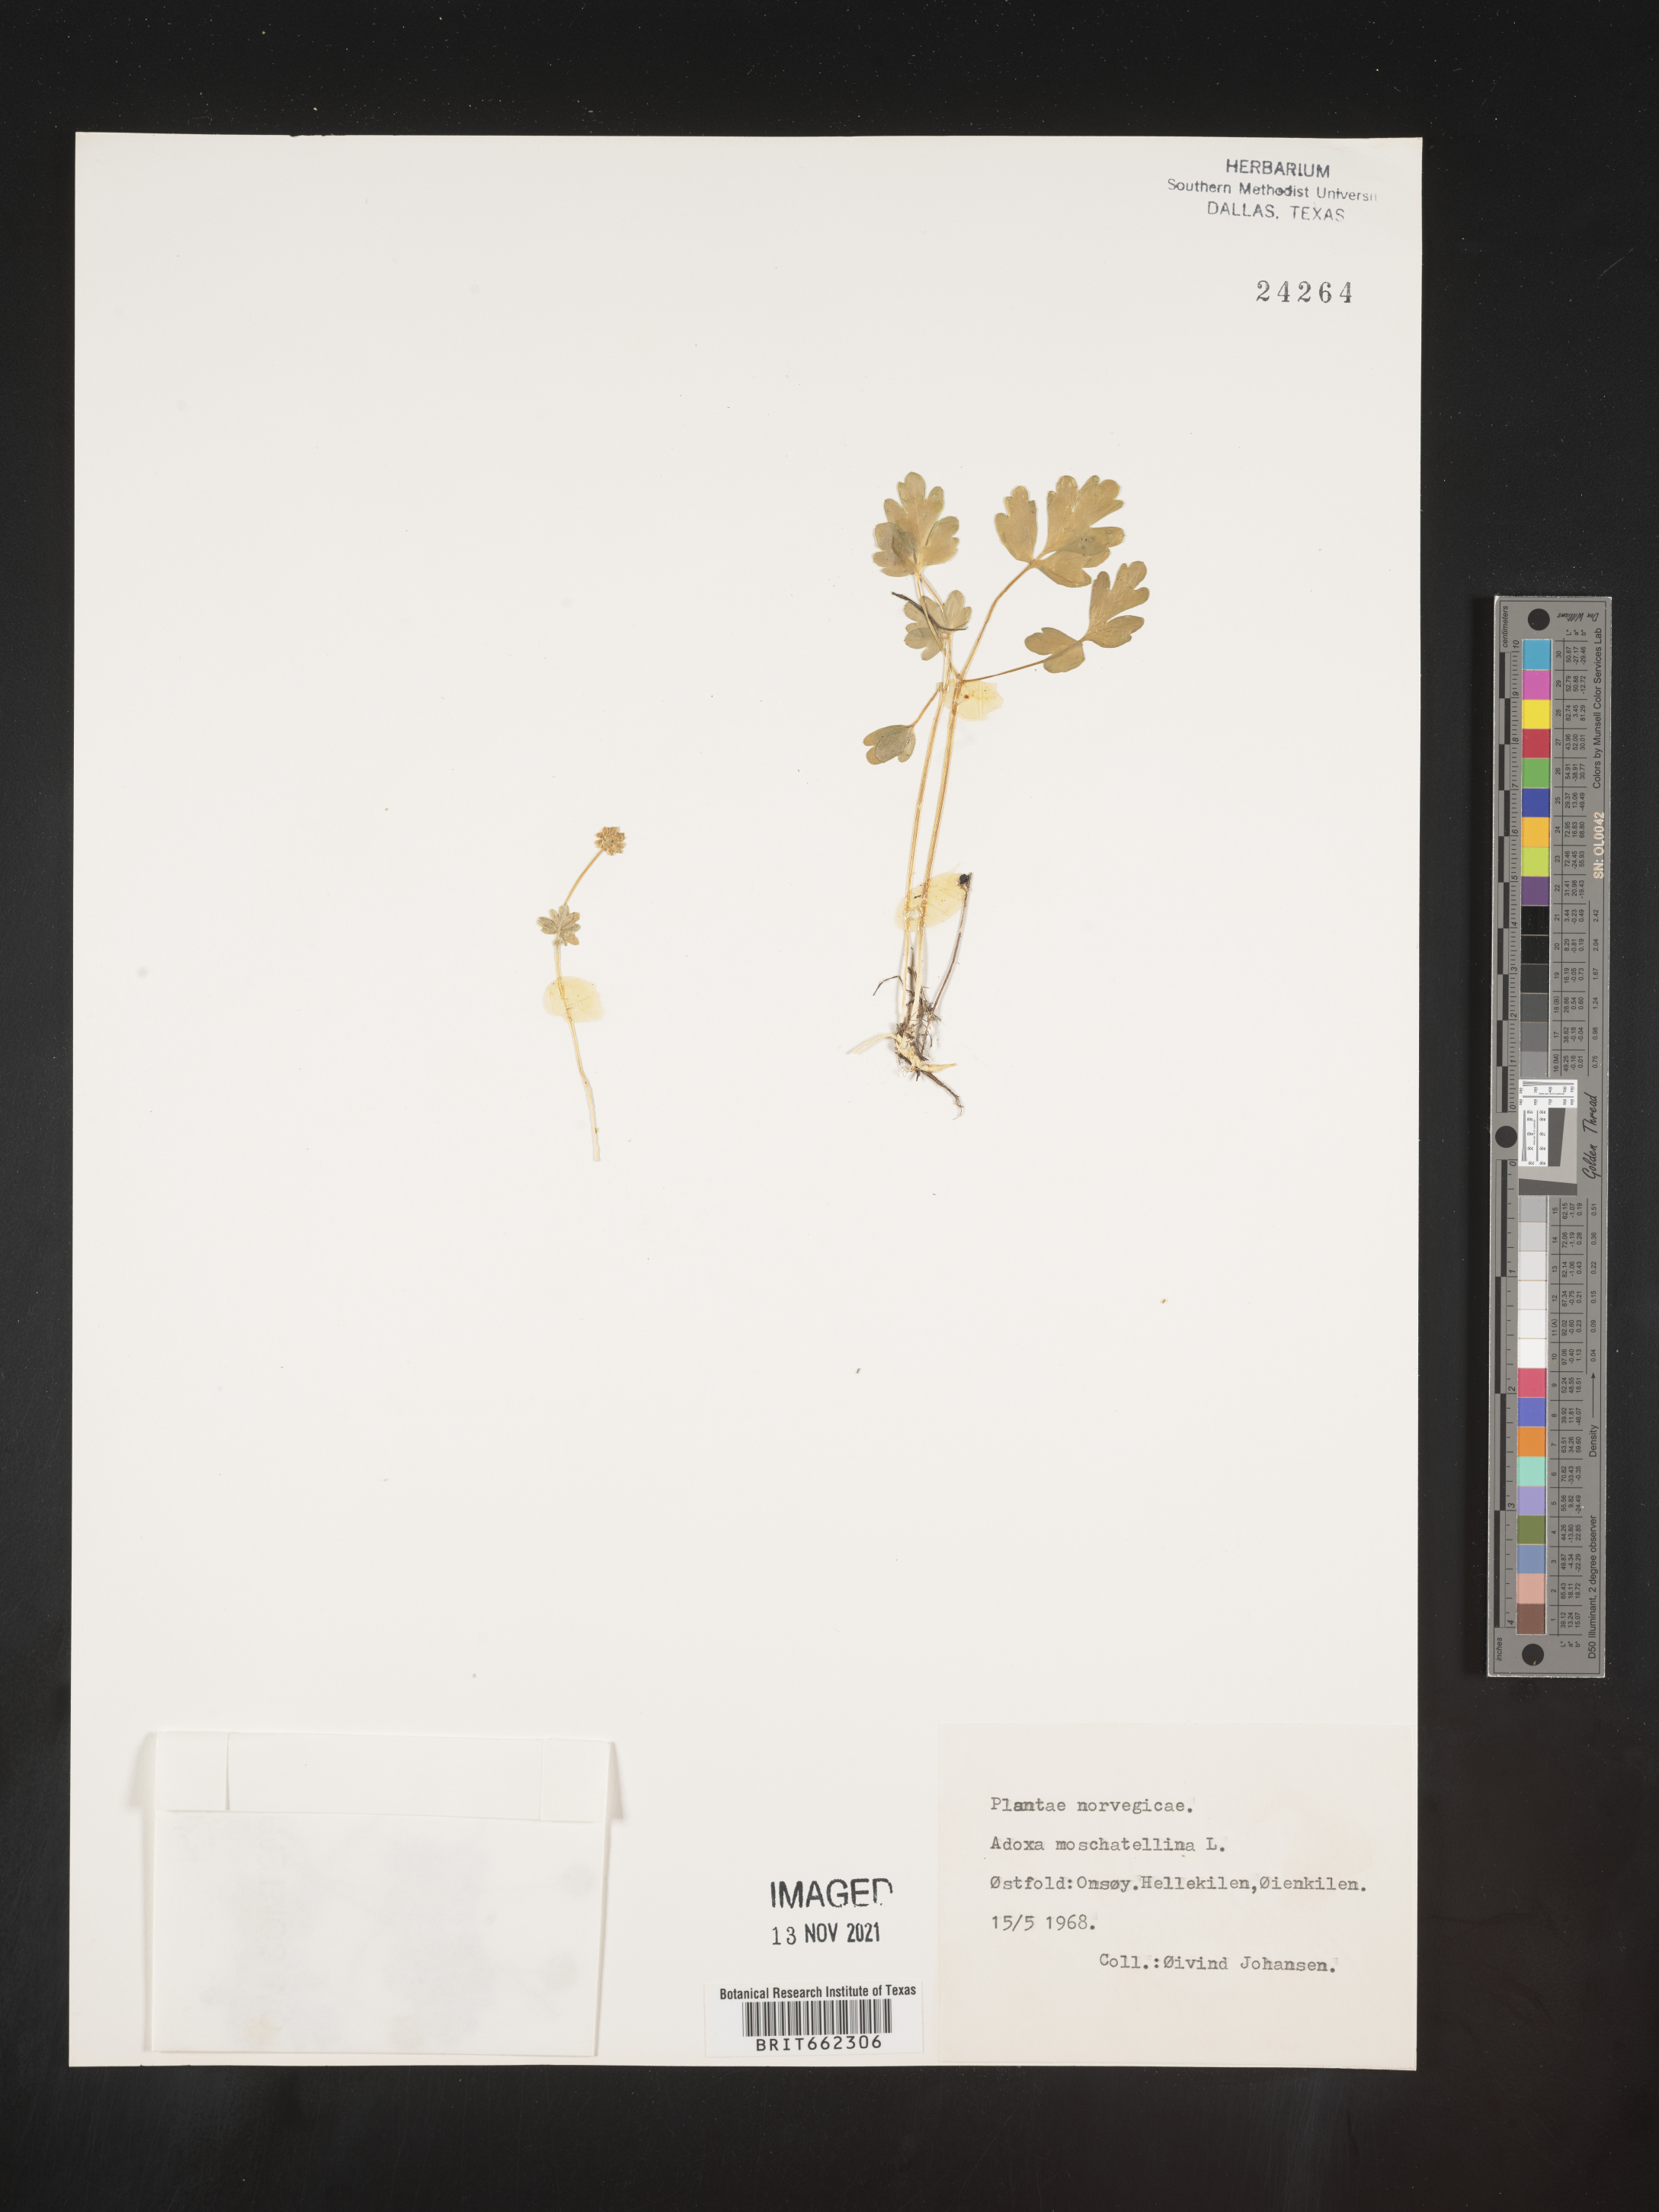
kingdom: Plantae
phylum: Tracheophyta
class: Magnoliopsida
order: Dipsacales
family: Viburnaceae
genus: Adoxa
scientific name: Adoxa
